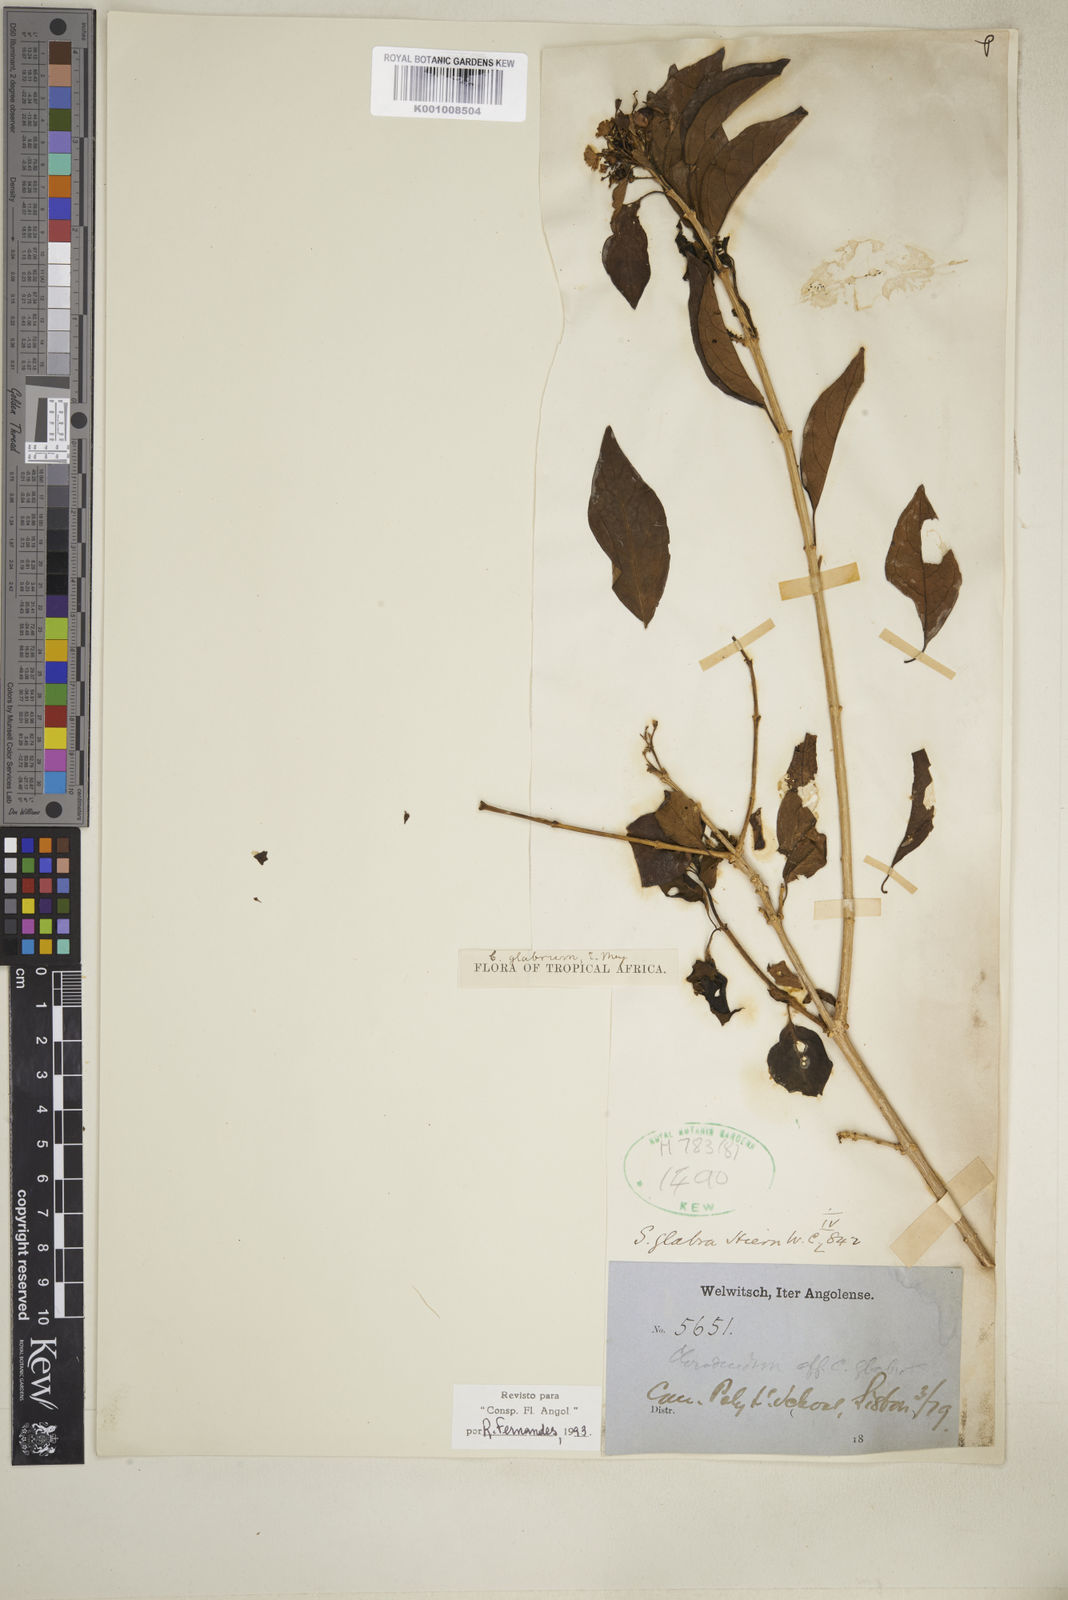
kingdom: Plantae
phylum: Tracheophyta
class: Magnoliopsida
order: Lamiales
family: Lamiaceae
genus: Volkameria
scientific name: Volkameria glabra
